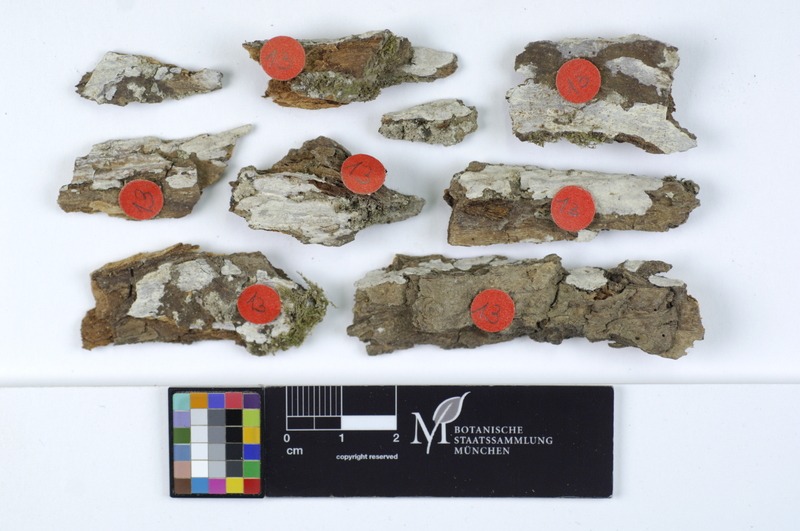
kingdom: Plantae
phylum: Tracheophyta
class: Magnoliopsida
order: Malpighiales
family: Salicaceae
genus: Salix
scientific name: Salix
